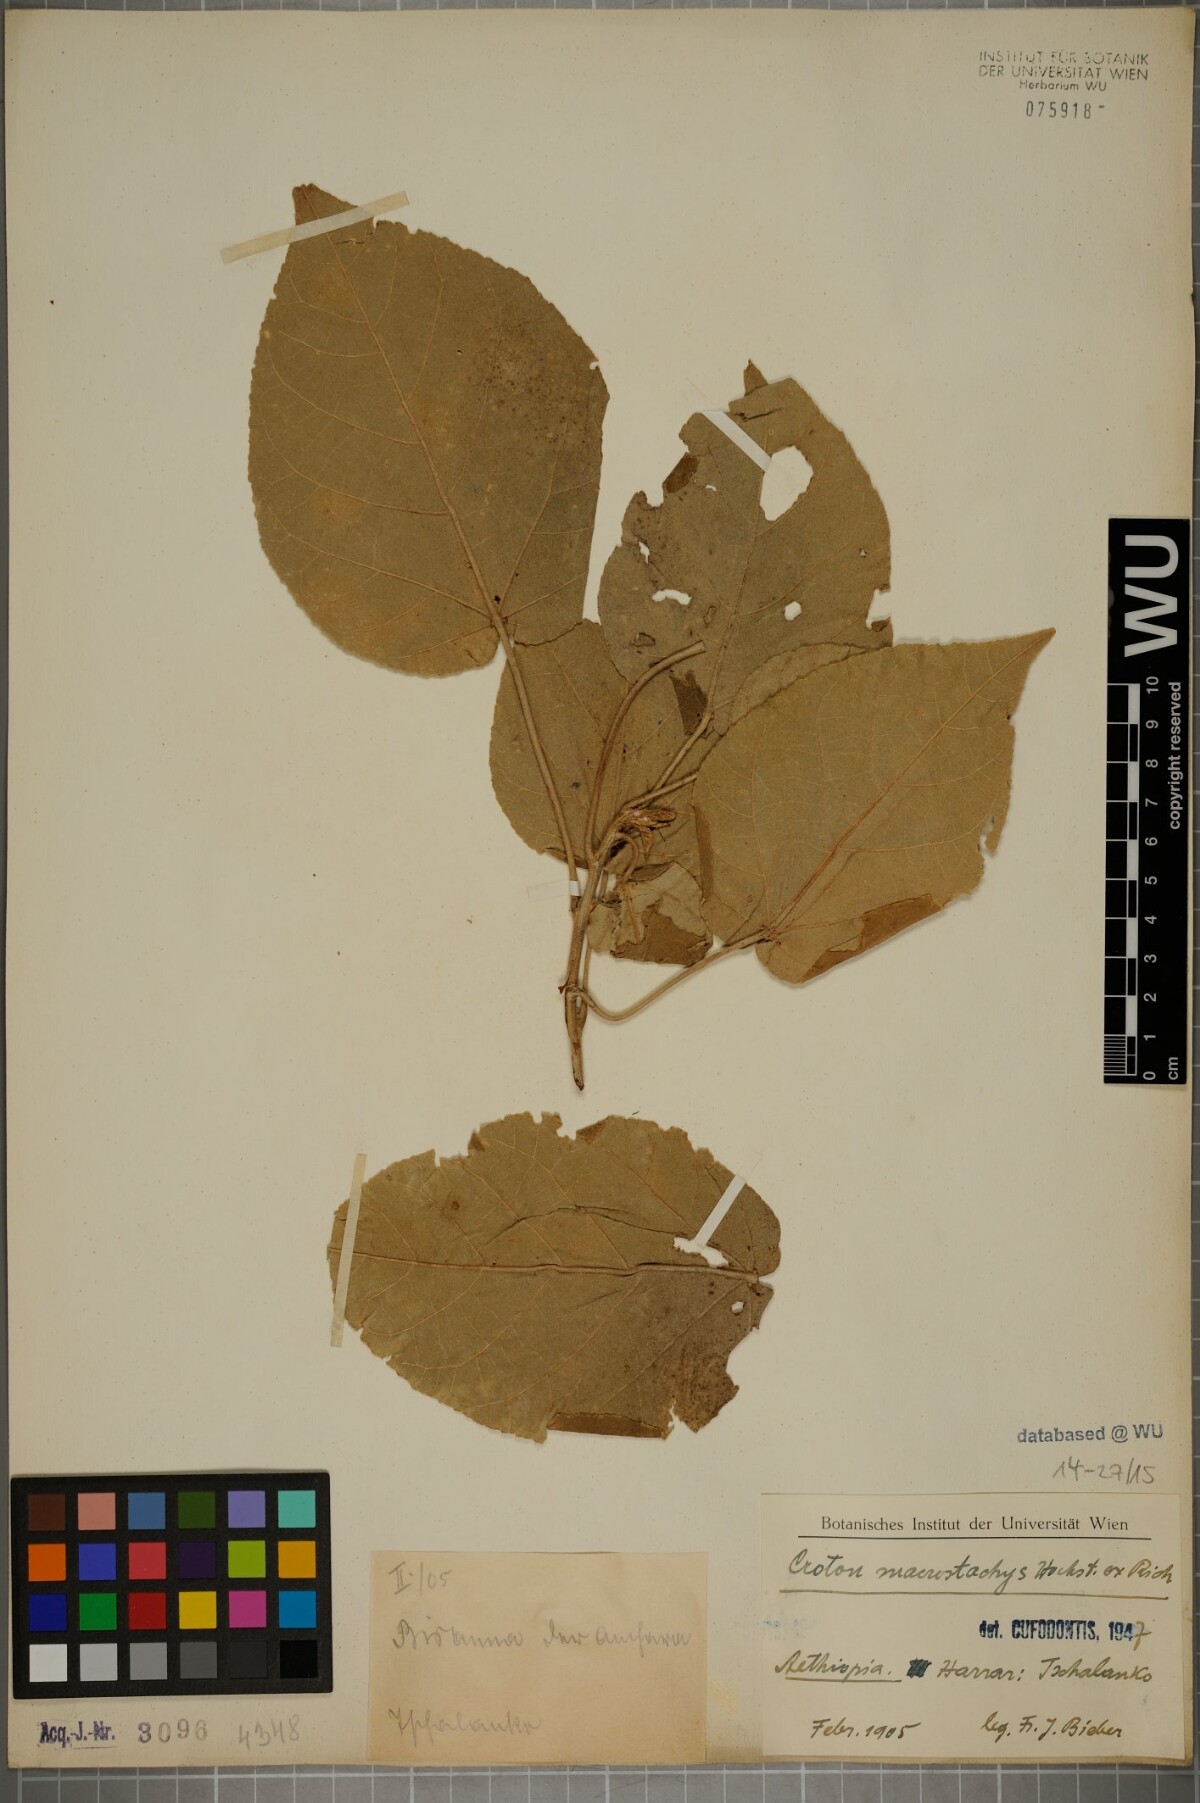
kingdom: Plantae
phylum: Tracheophyta
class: Magnoliopsida
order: Malpighiales
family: Euphorbiaceae
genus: Croton
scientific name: Croton macrostachys
